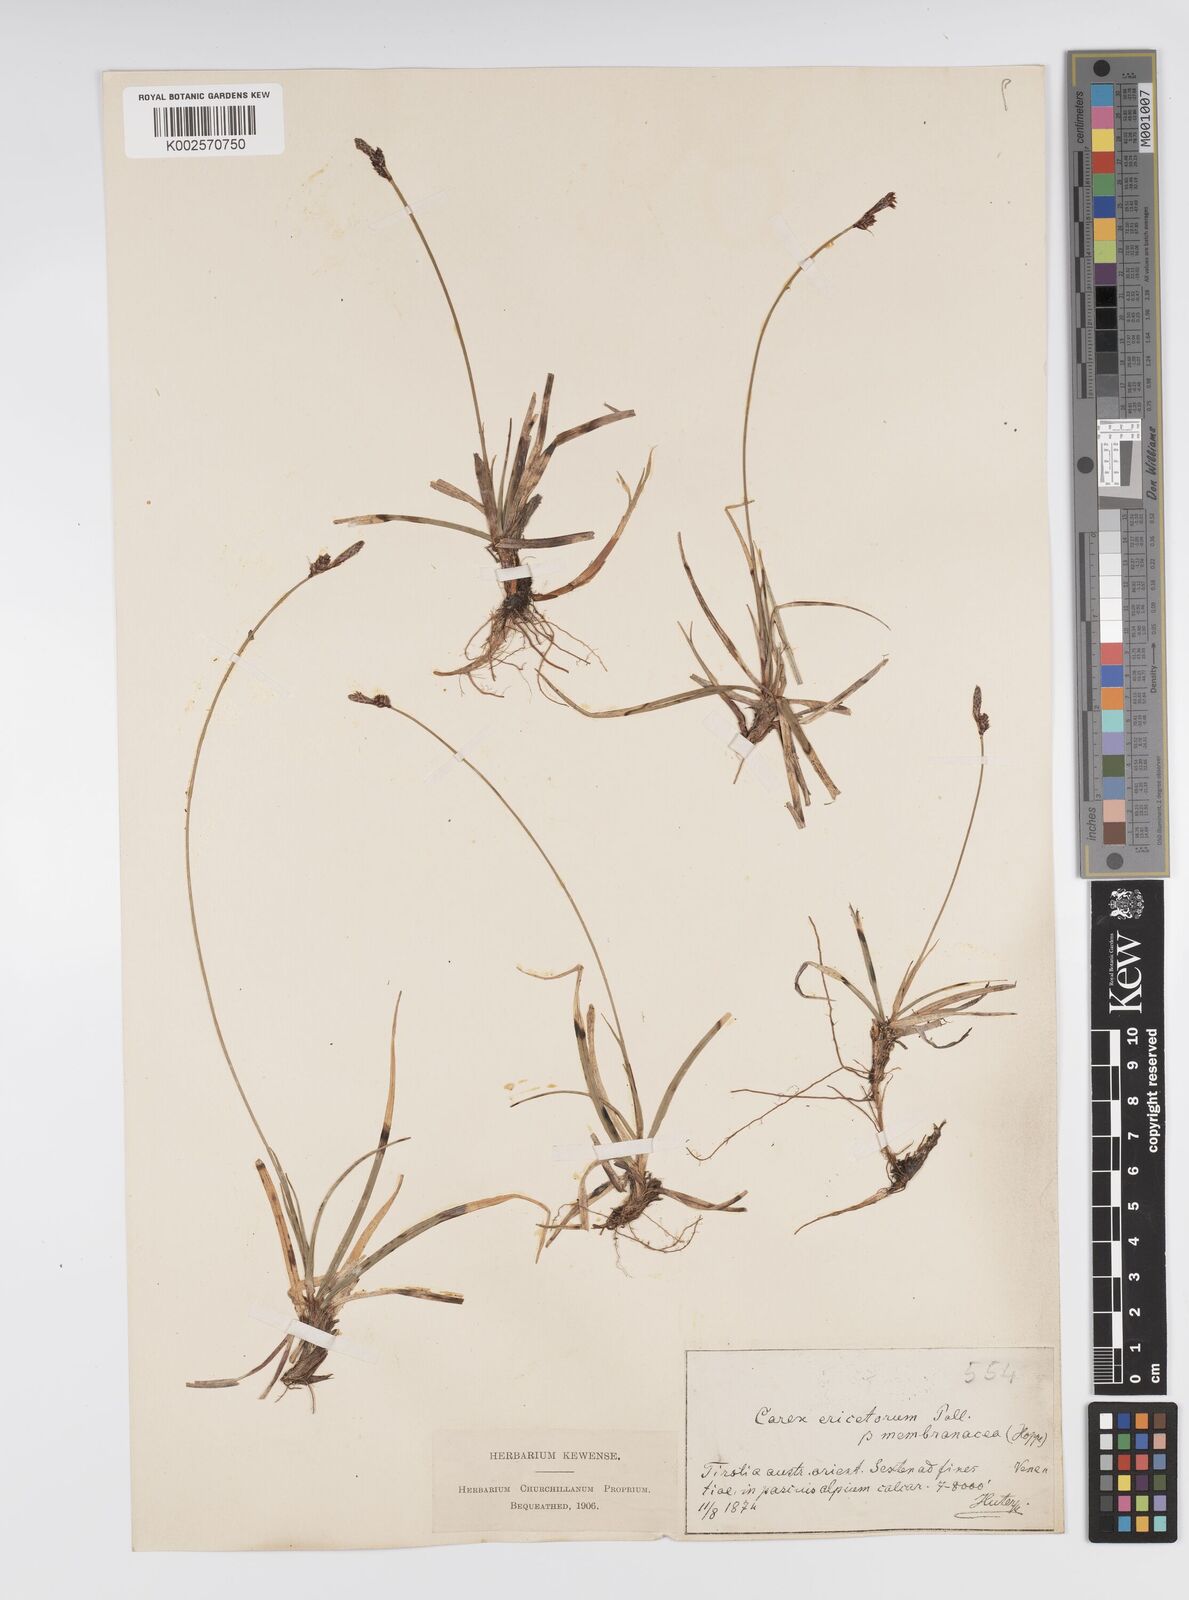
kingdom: Plantae
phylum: Tracheophyta
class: Liliopsida
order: Poales
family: Cyperaceae
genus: Carex
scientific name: Carex ericetorum
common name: Rare spring-sedge
